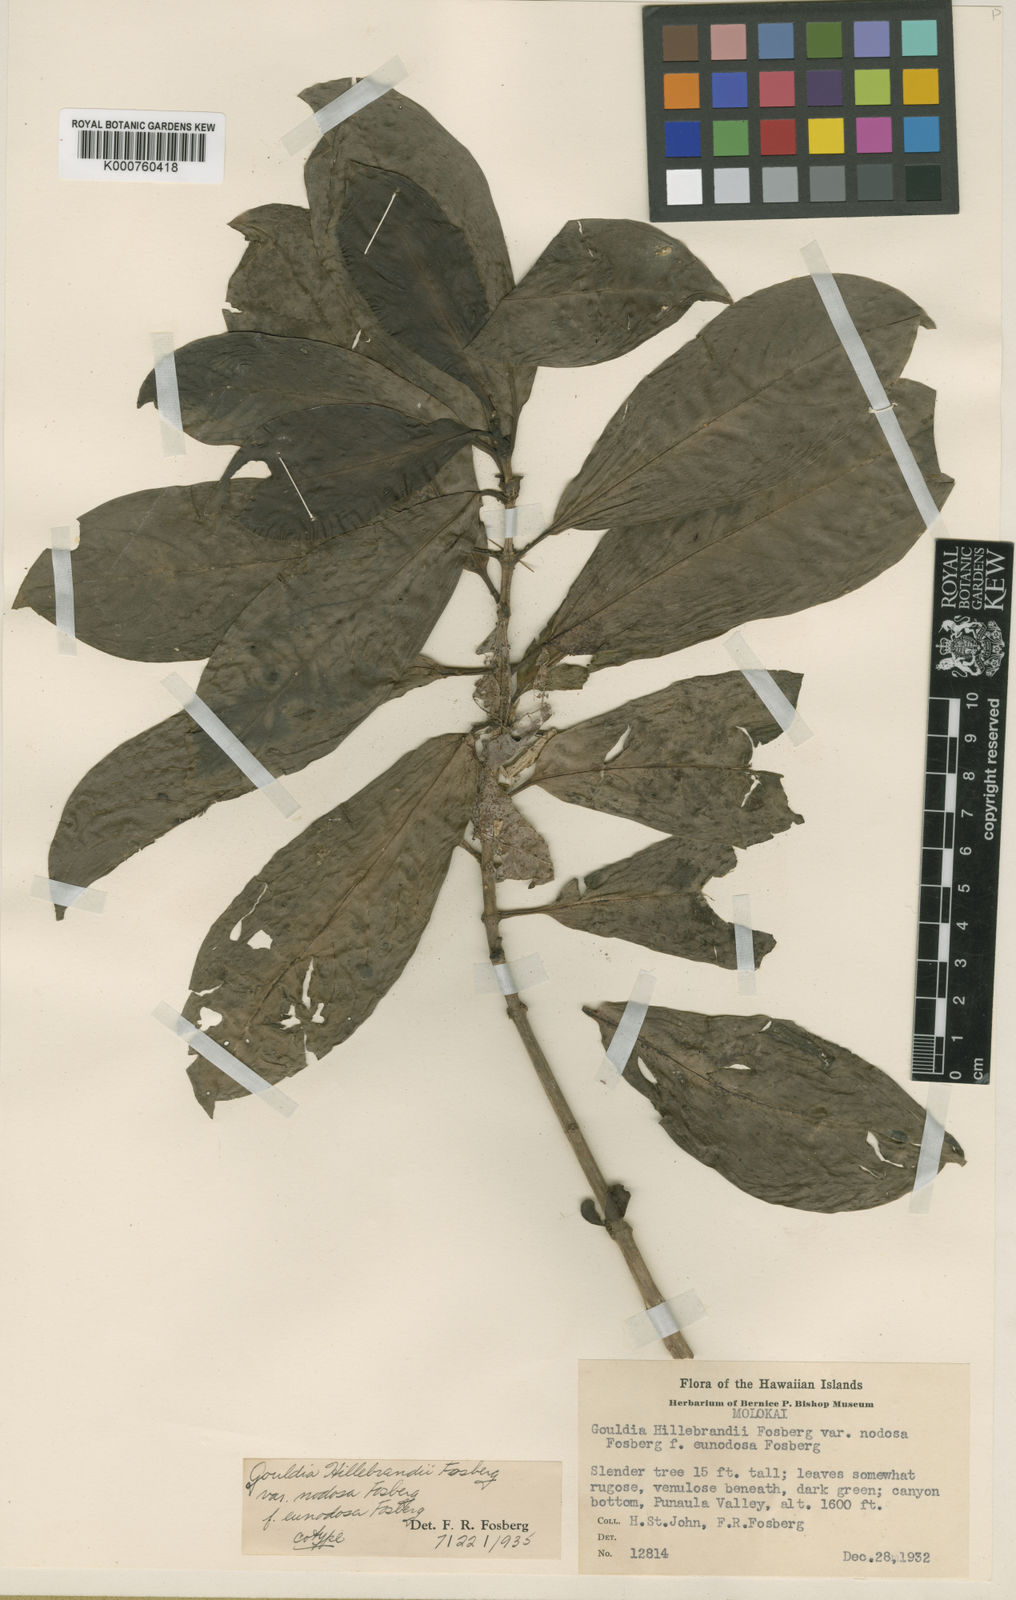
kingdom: Plantae
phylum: Tracheophyta
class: Magnoliopsida
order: Gentianales
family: Rubiaceae
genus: Kadua
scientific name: Kadua axillaris
